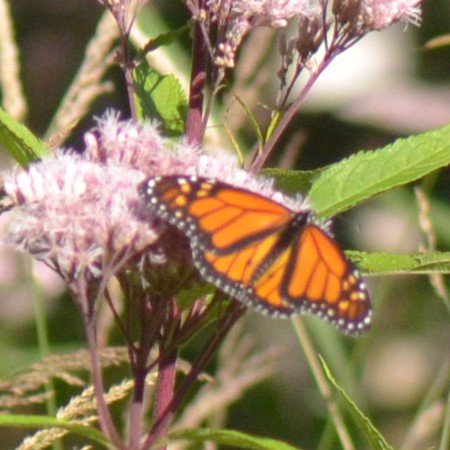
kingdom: Animalia
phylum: Arthropoda
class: Insecta
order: Lepidoptera
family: Nymphalidae
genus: Danaus
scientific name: Danaus plexippus
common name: Monarch
